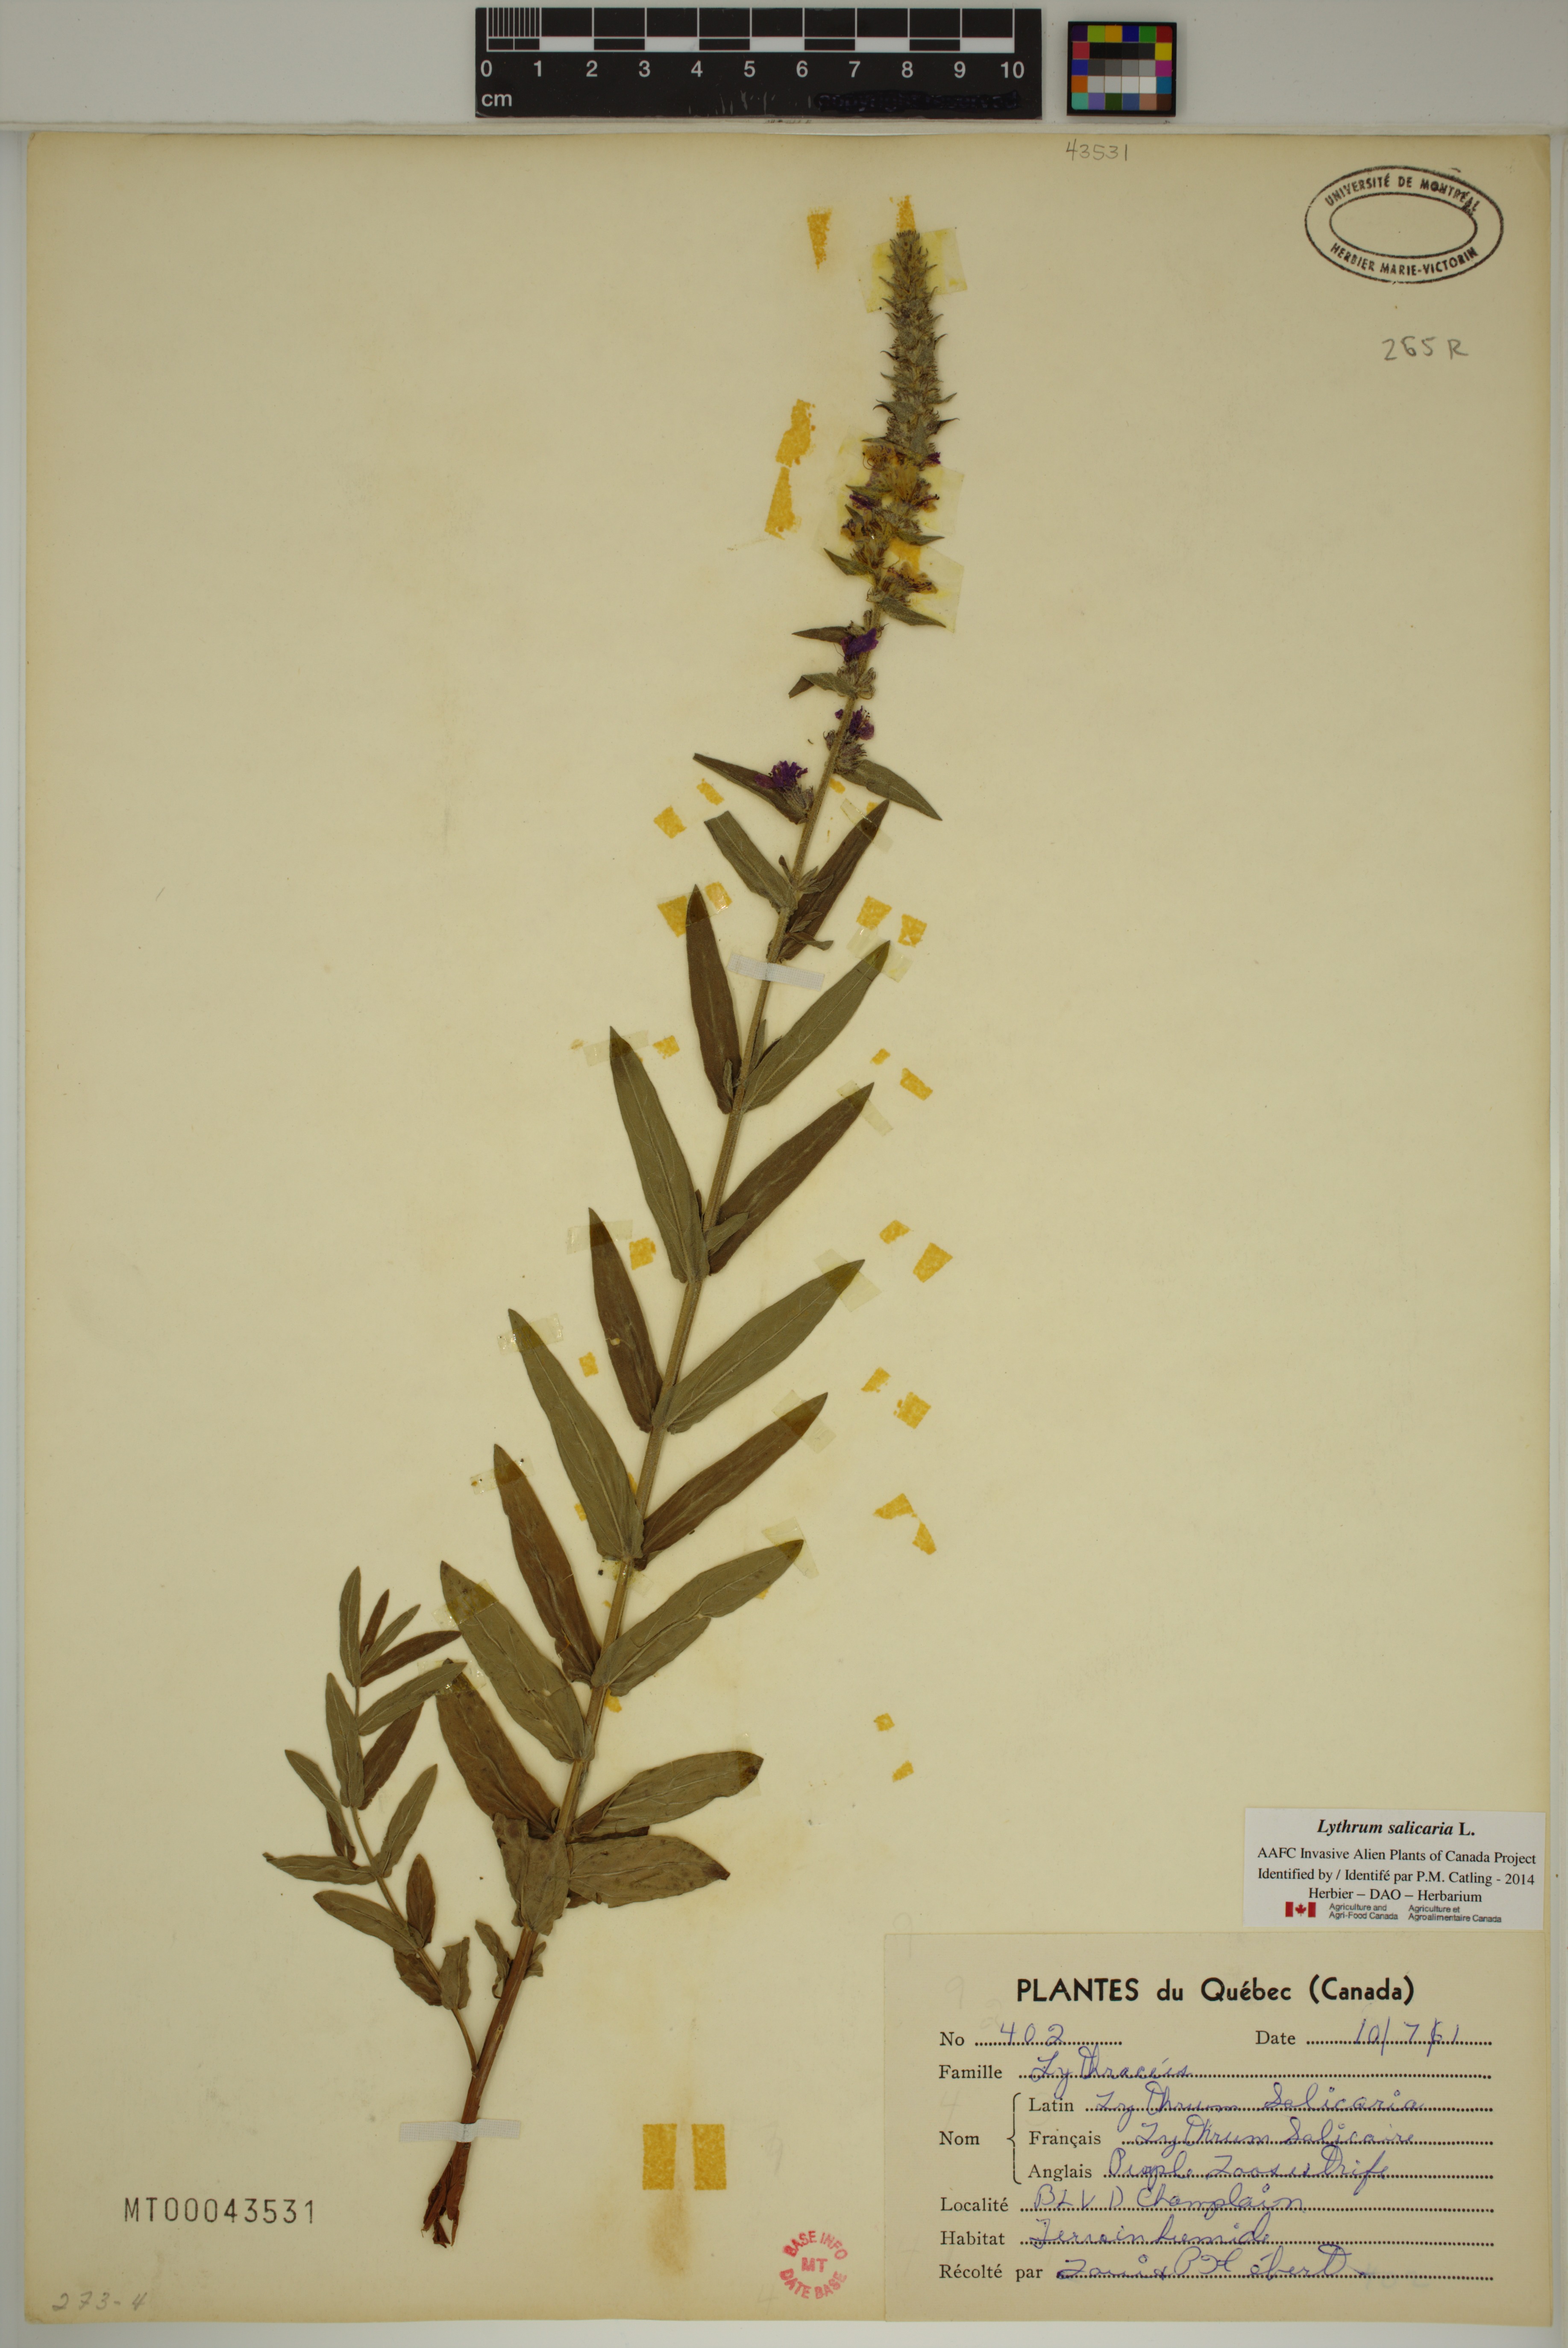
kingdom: Plantae
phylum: Tracheophyta
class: Magnoliopsida
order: Myrtales
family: Lythraceae
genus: Lythrum
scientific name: Lythrum salicaria
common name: Purple loosestrife
